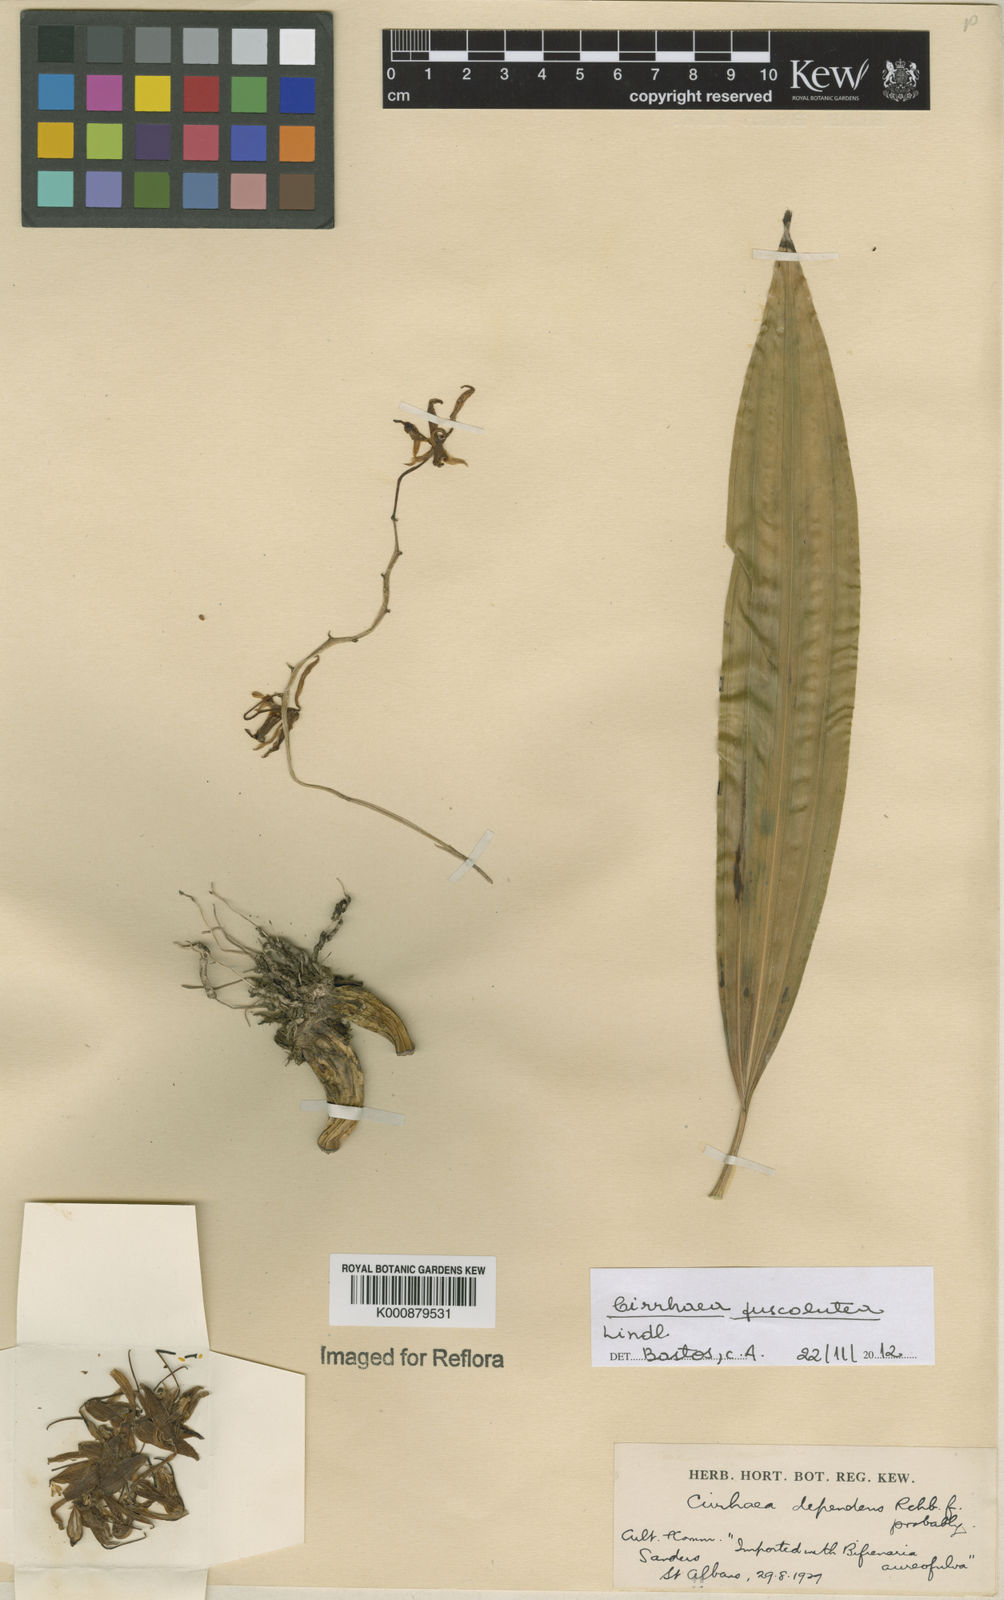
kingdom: Plantae
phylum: Tracheophyta
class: Liliopsida
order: Asparagales
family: Orchidaceae
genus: Cirrhaea
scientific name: Cirrhaea fuscolutea
